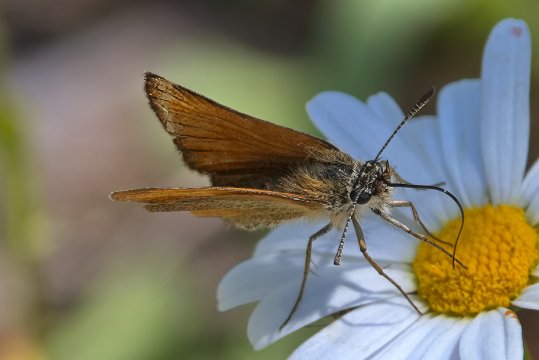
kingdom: Animalia
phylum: Arthropoda
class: Insecta
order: Lepidoptera
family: Hesperiidae
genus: Thymelicus
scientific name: Thymelicus lineola
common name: European Skipper
